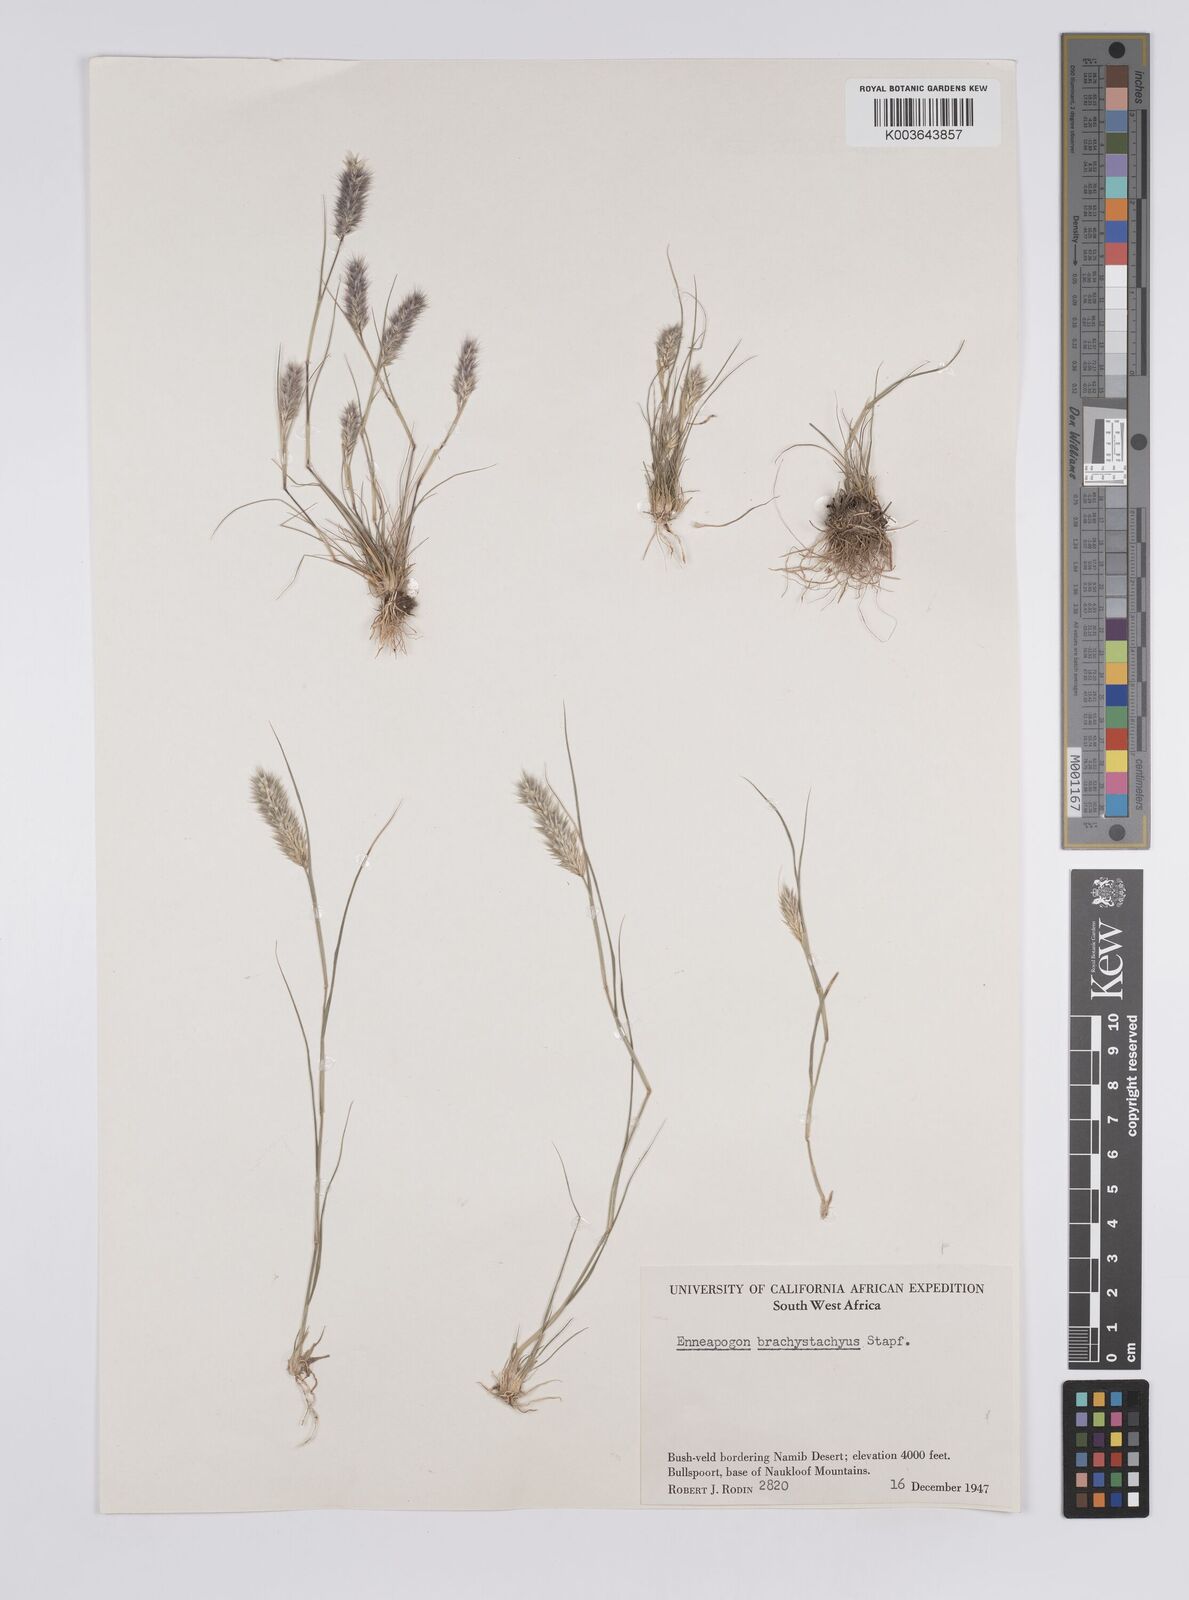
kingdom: Plantae
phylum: Tracheophyta
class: Liliopsida
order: Poales
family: Poaceae
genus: Enneapogon
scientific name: Enneapogon desvauxii
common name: Feather pappus grass
